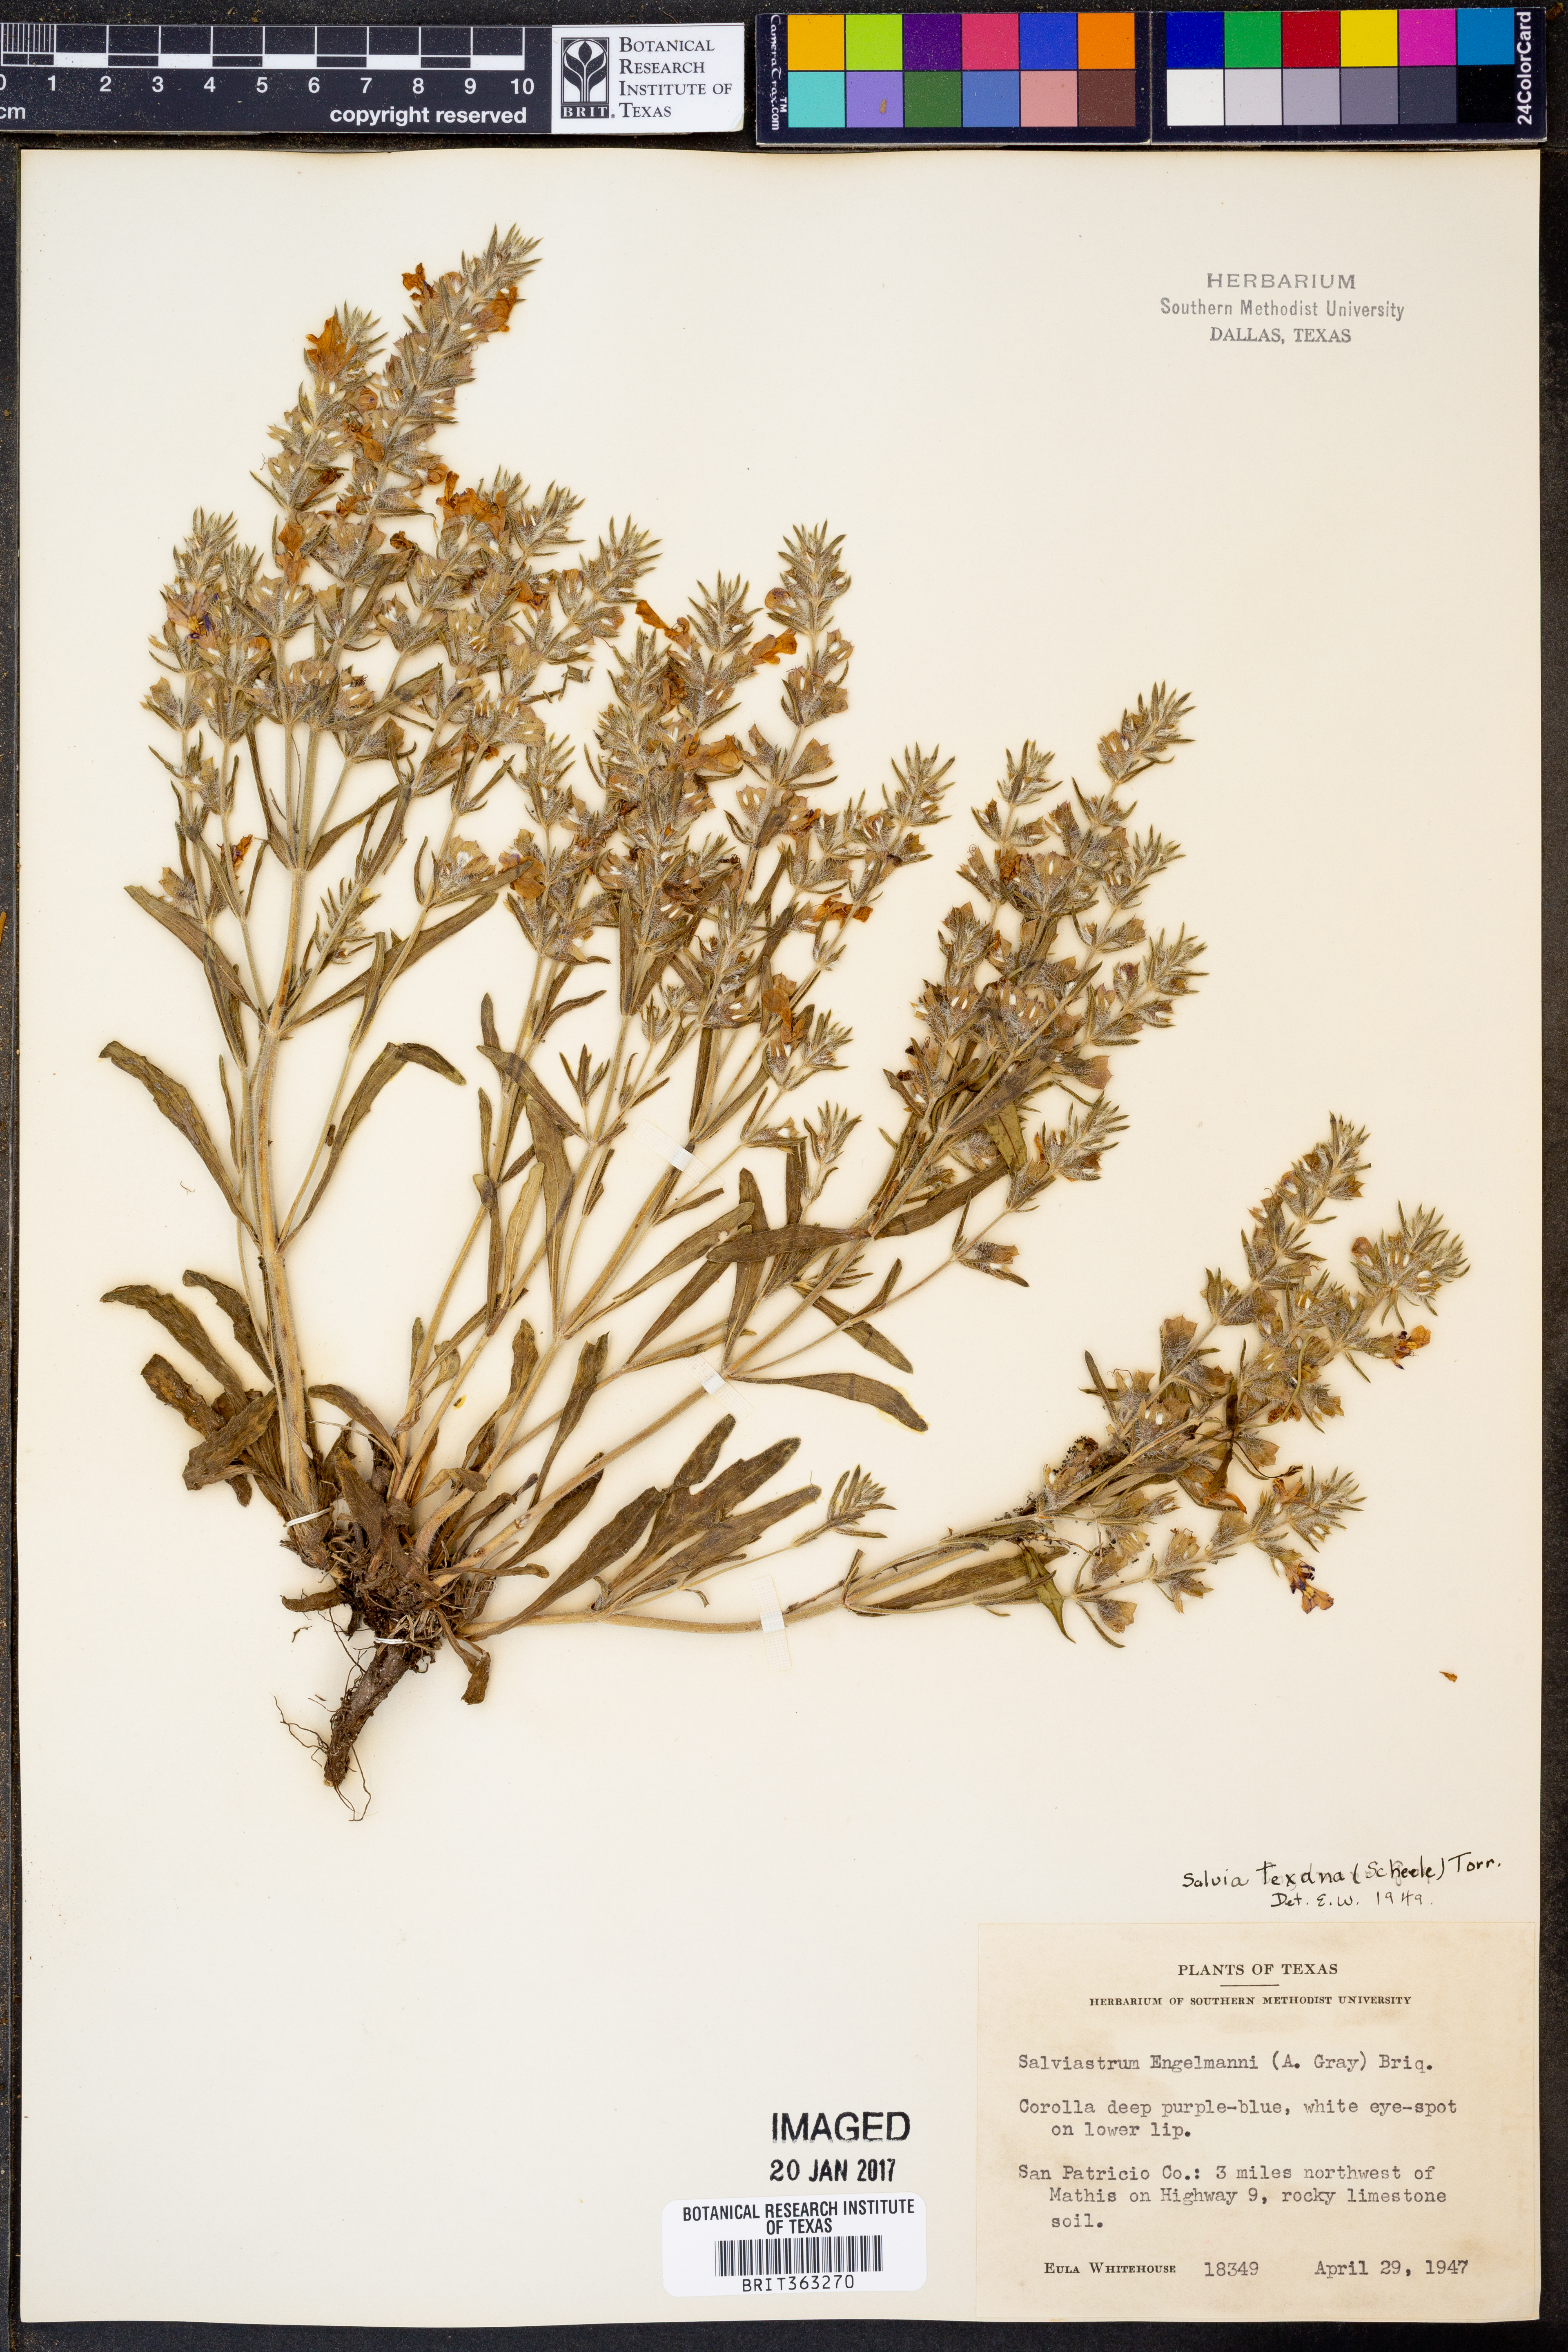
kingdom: Plantae
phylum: Tracheophyta
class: Magnoliopsida
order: Lamiales
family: Lamiaceae
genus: Salvia
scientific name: Salvia texana
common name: Texas sage
